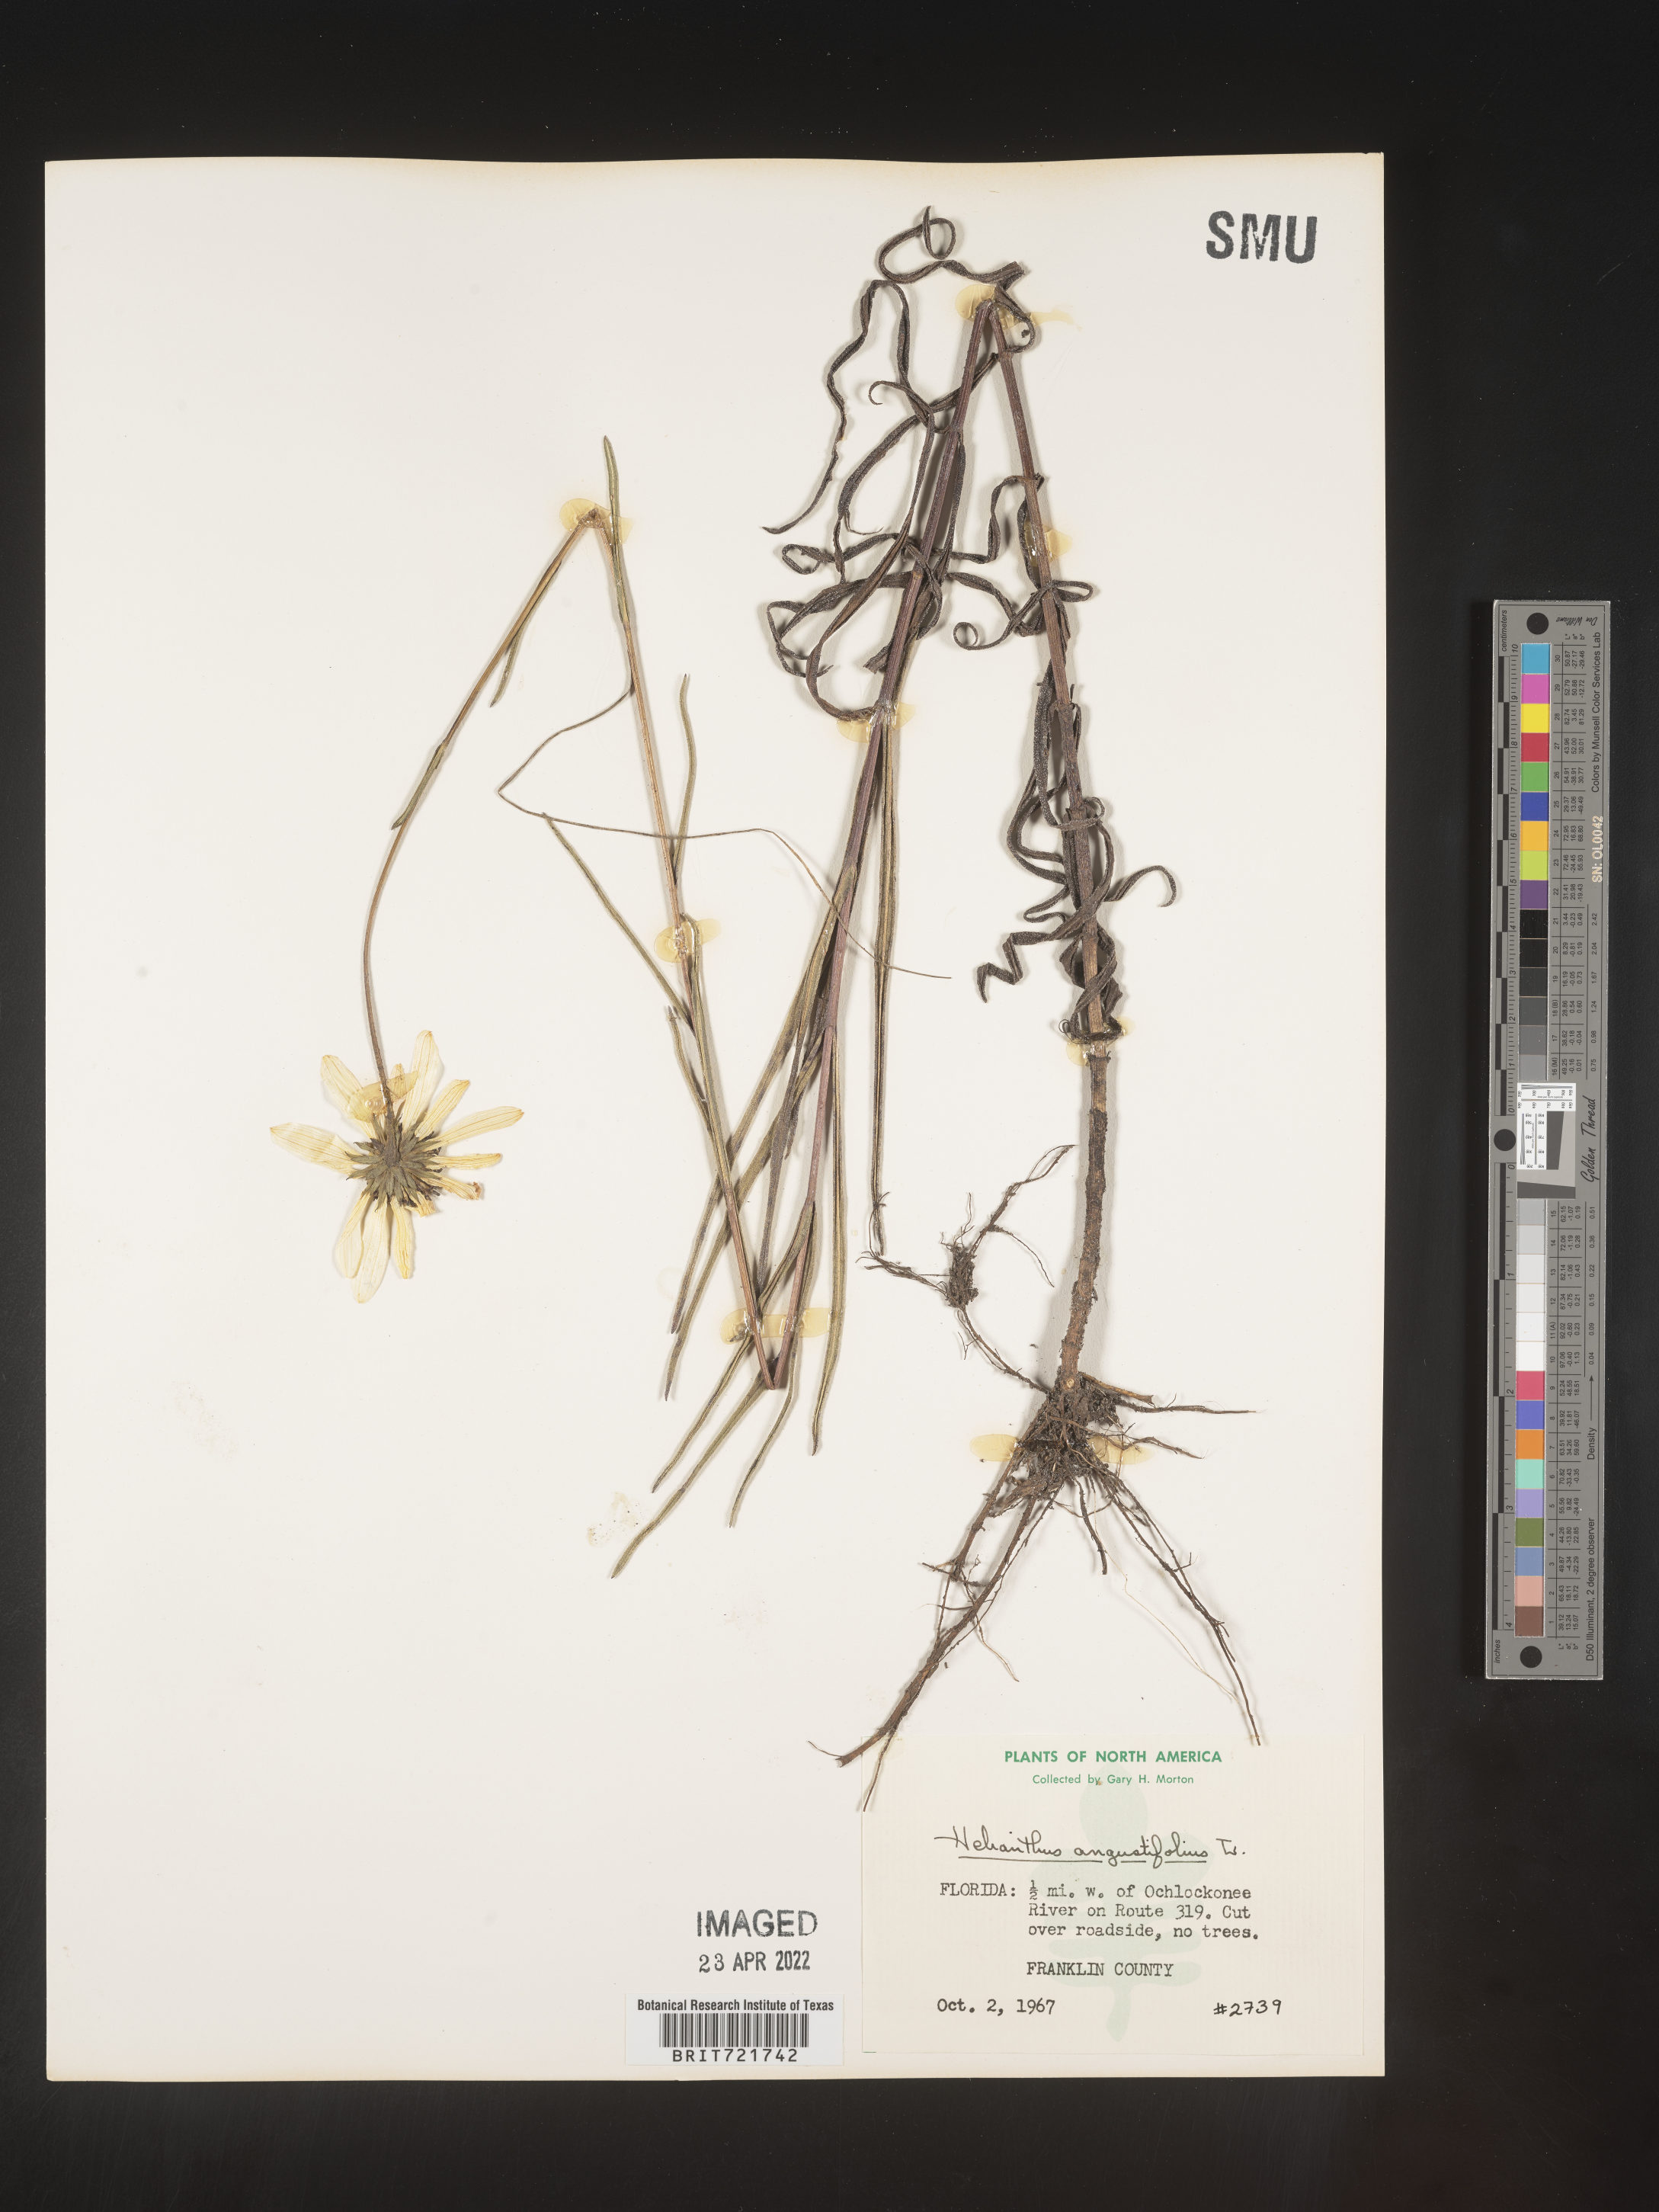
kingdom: Plantae
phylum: Tracheophyta
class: Magnoliopsida
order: Asterales
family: Asteraceae
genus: Helianthus
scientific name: Helianthus angustifolius
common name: Swamp sunflower
